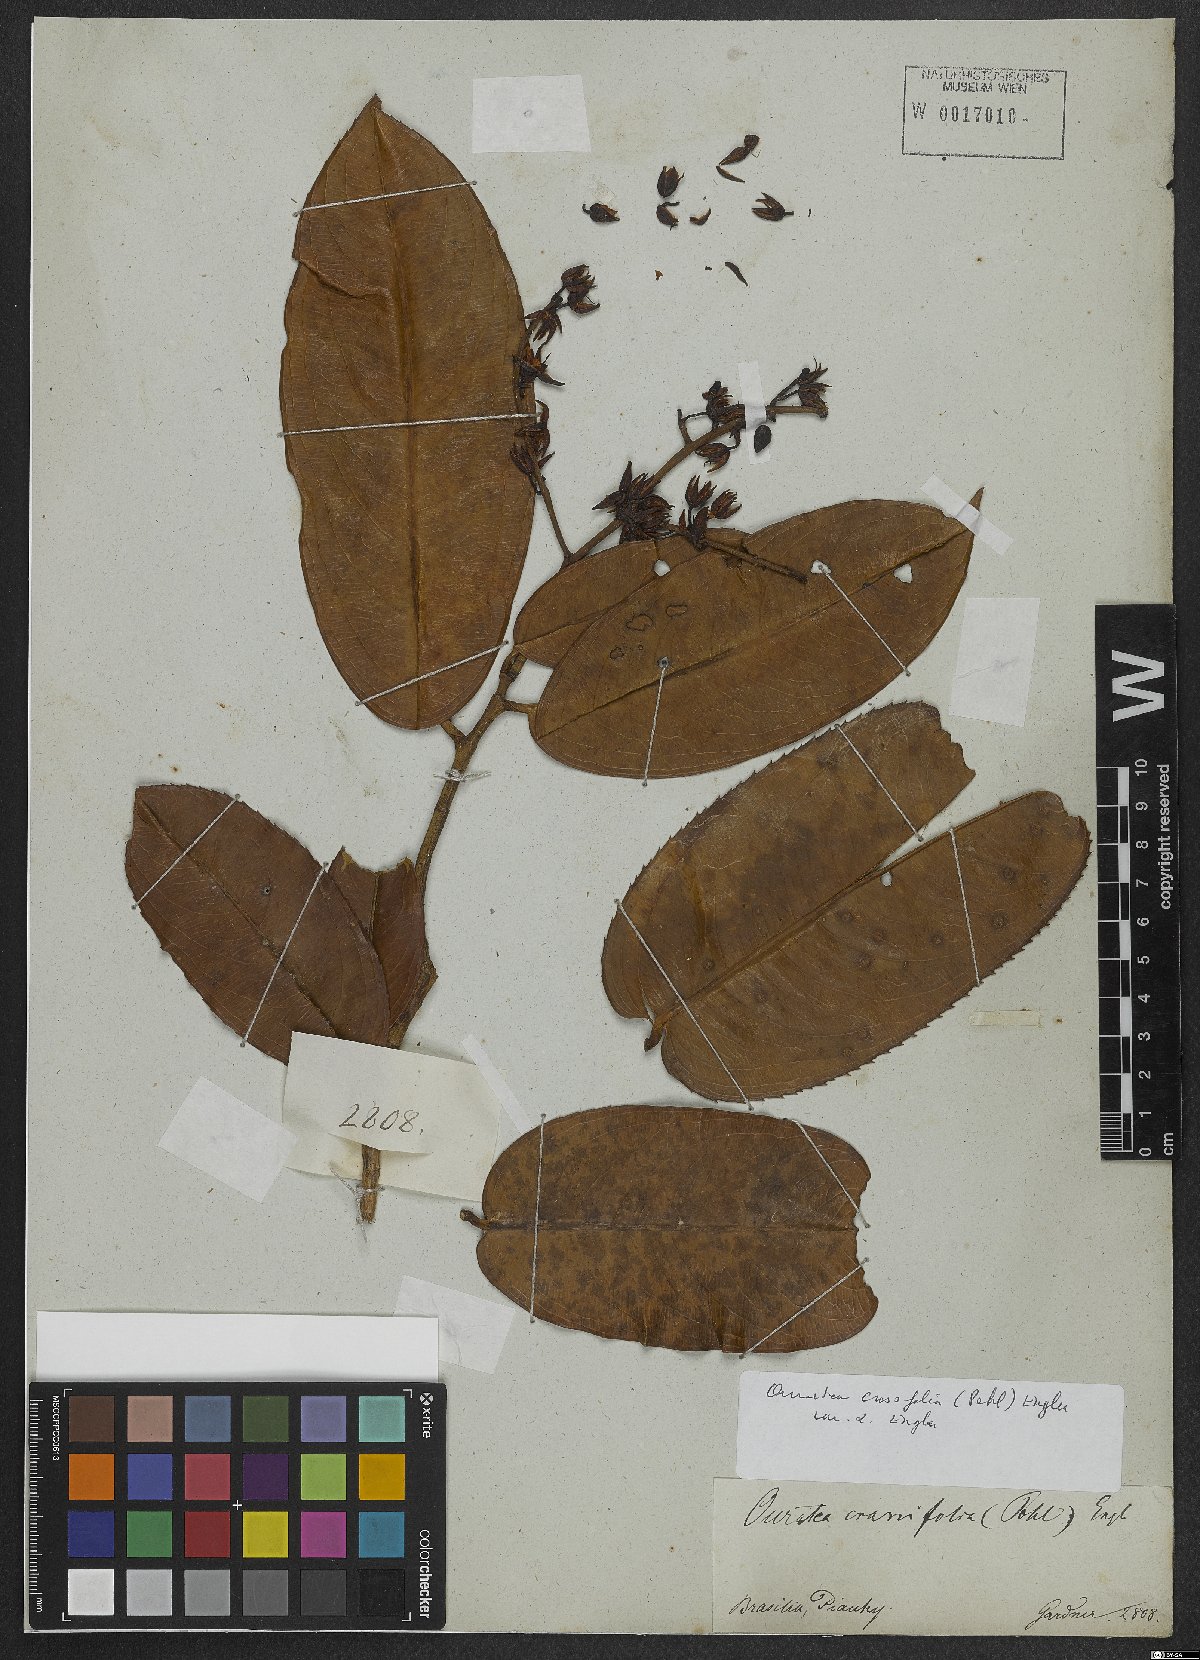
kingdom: Plantae
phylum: Tracheophyta
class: Magnoliopsida
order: Malpighiales
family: Ochnaceae
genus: Ouratea
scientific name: Ouratea crassifolia
